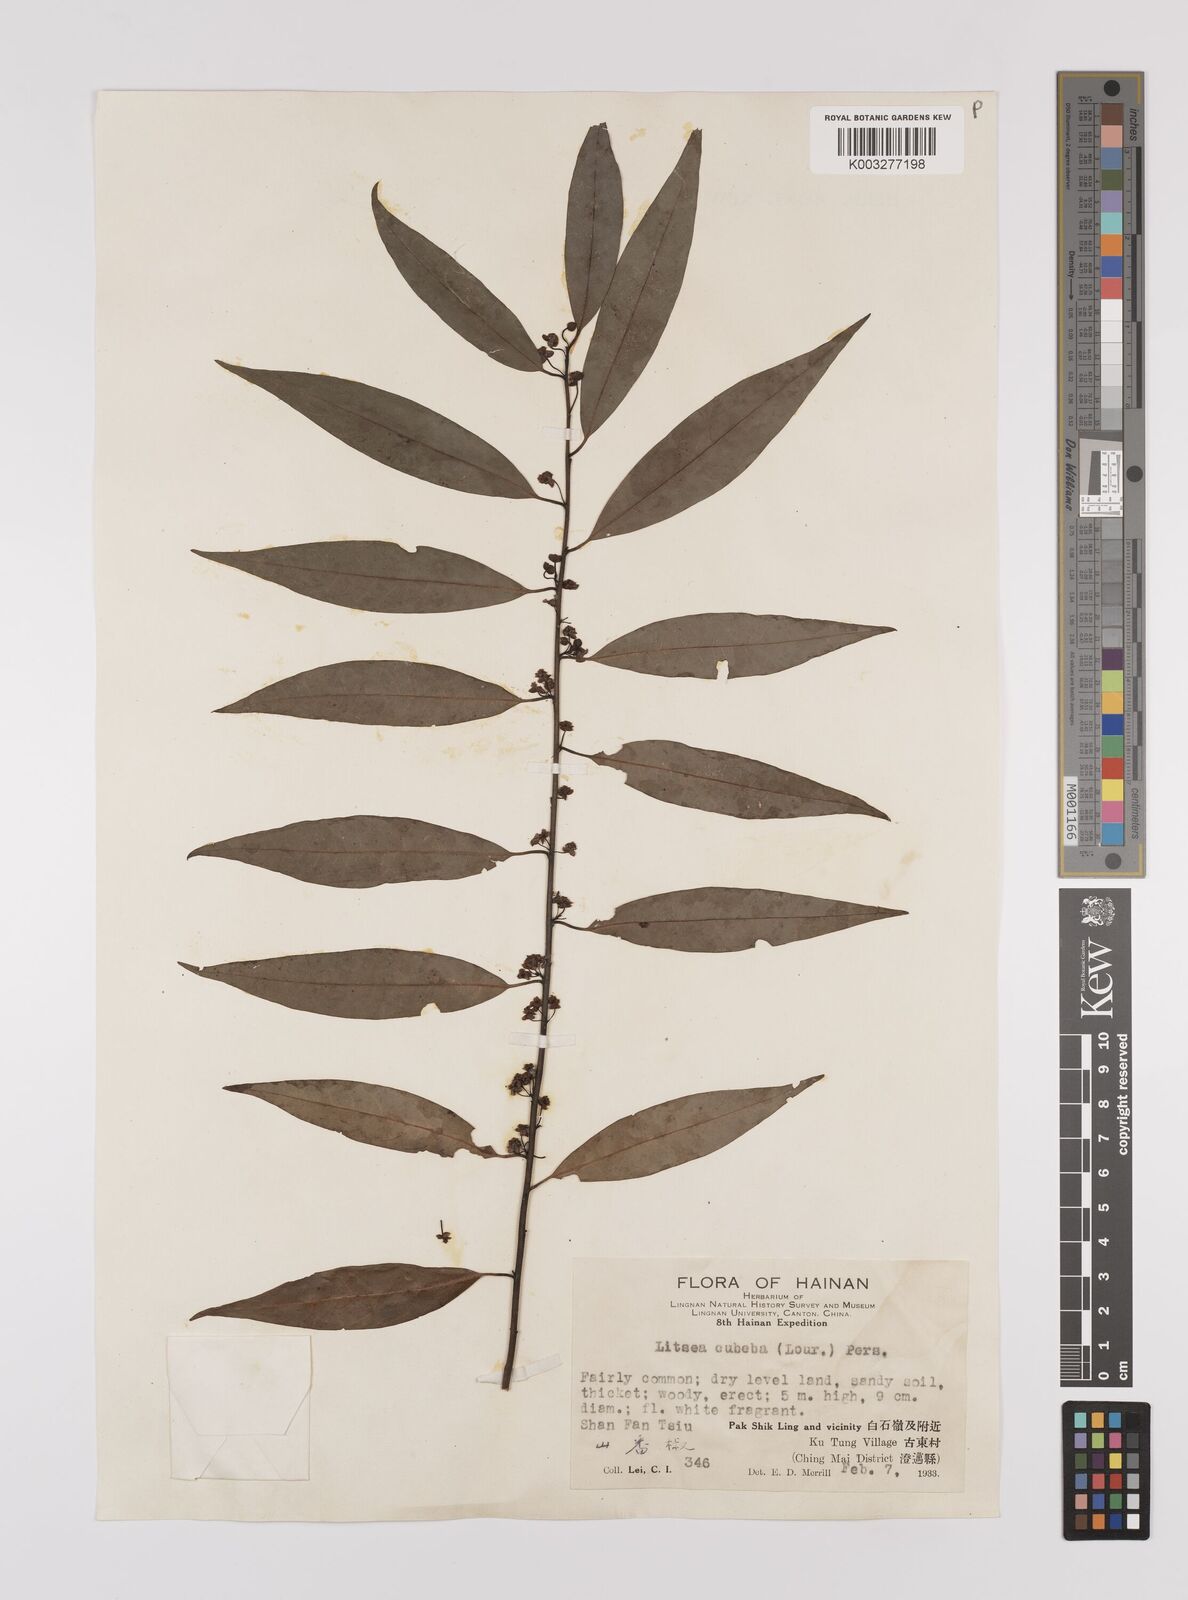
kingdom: Plantae
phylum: Tracheophyta
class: Magnoliopsida
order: Laurales
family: Lauraceae
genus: Litsea
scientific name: Litsea cubeba
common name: Mountain-pepper
